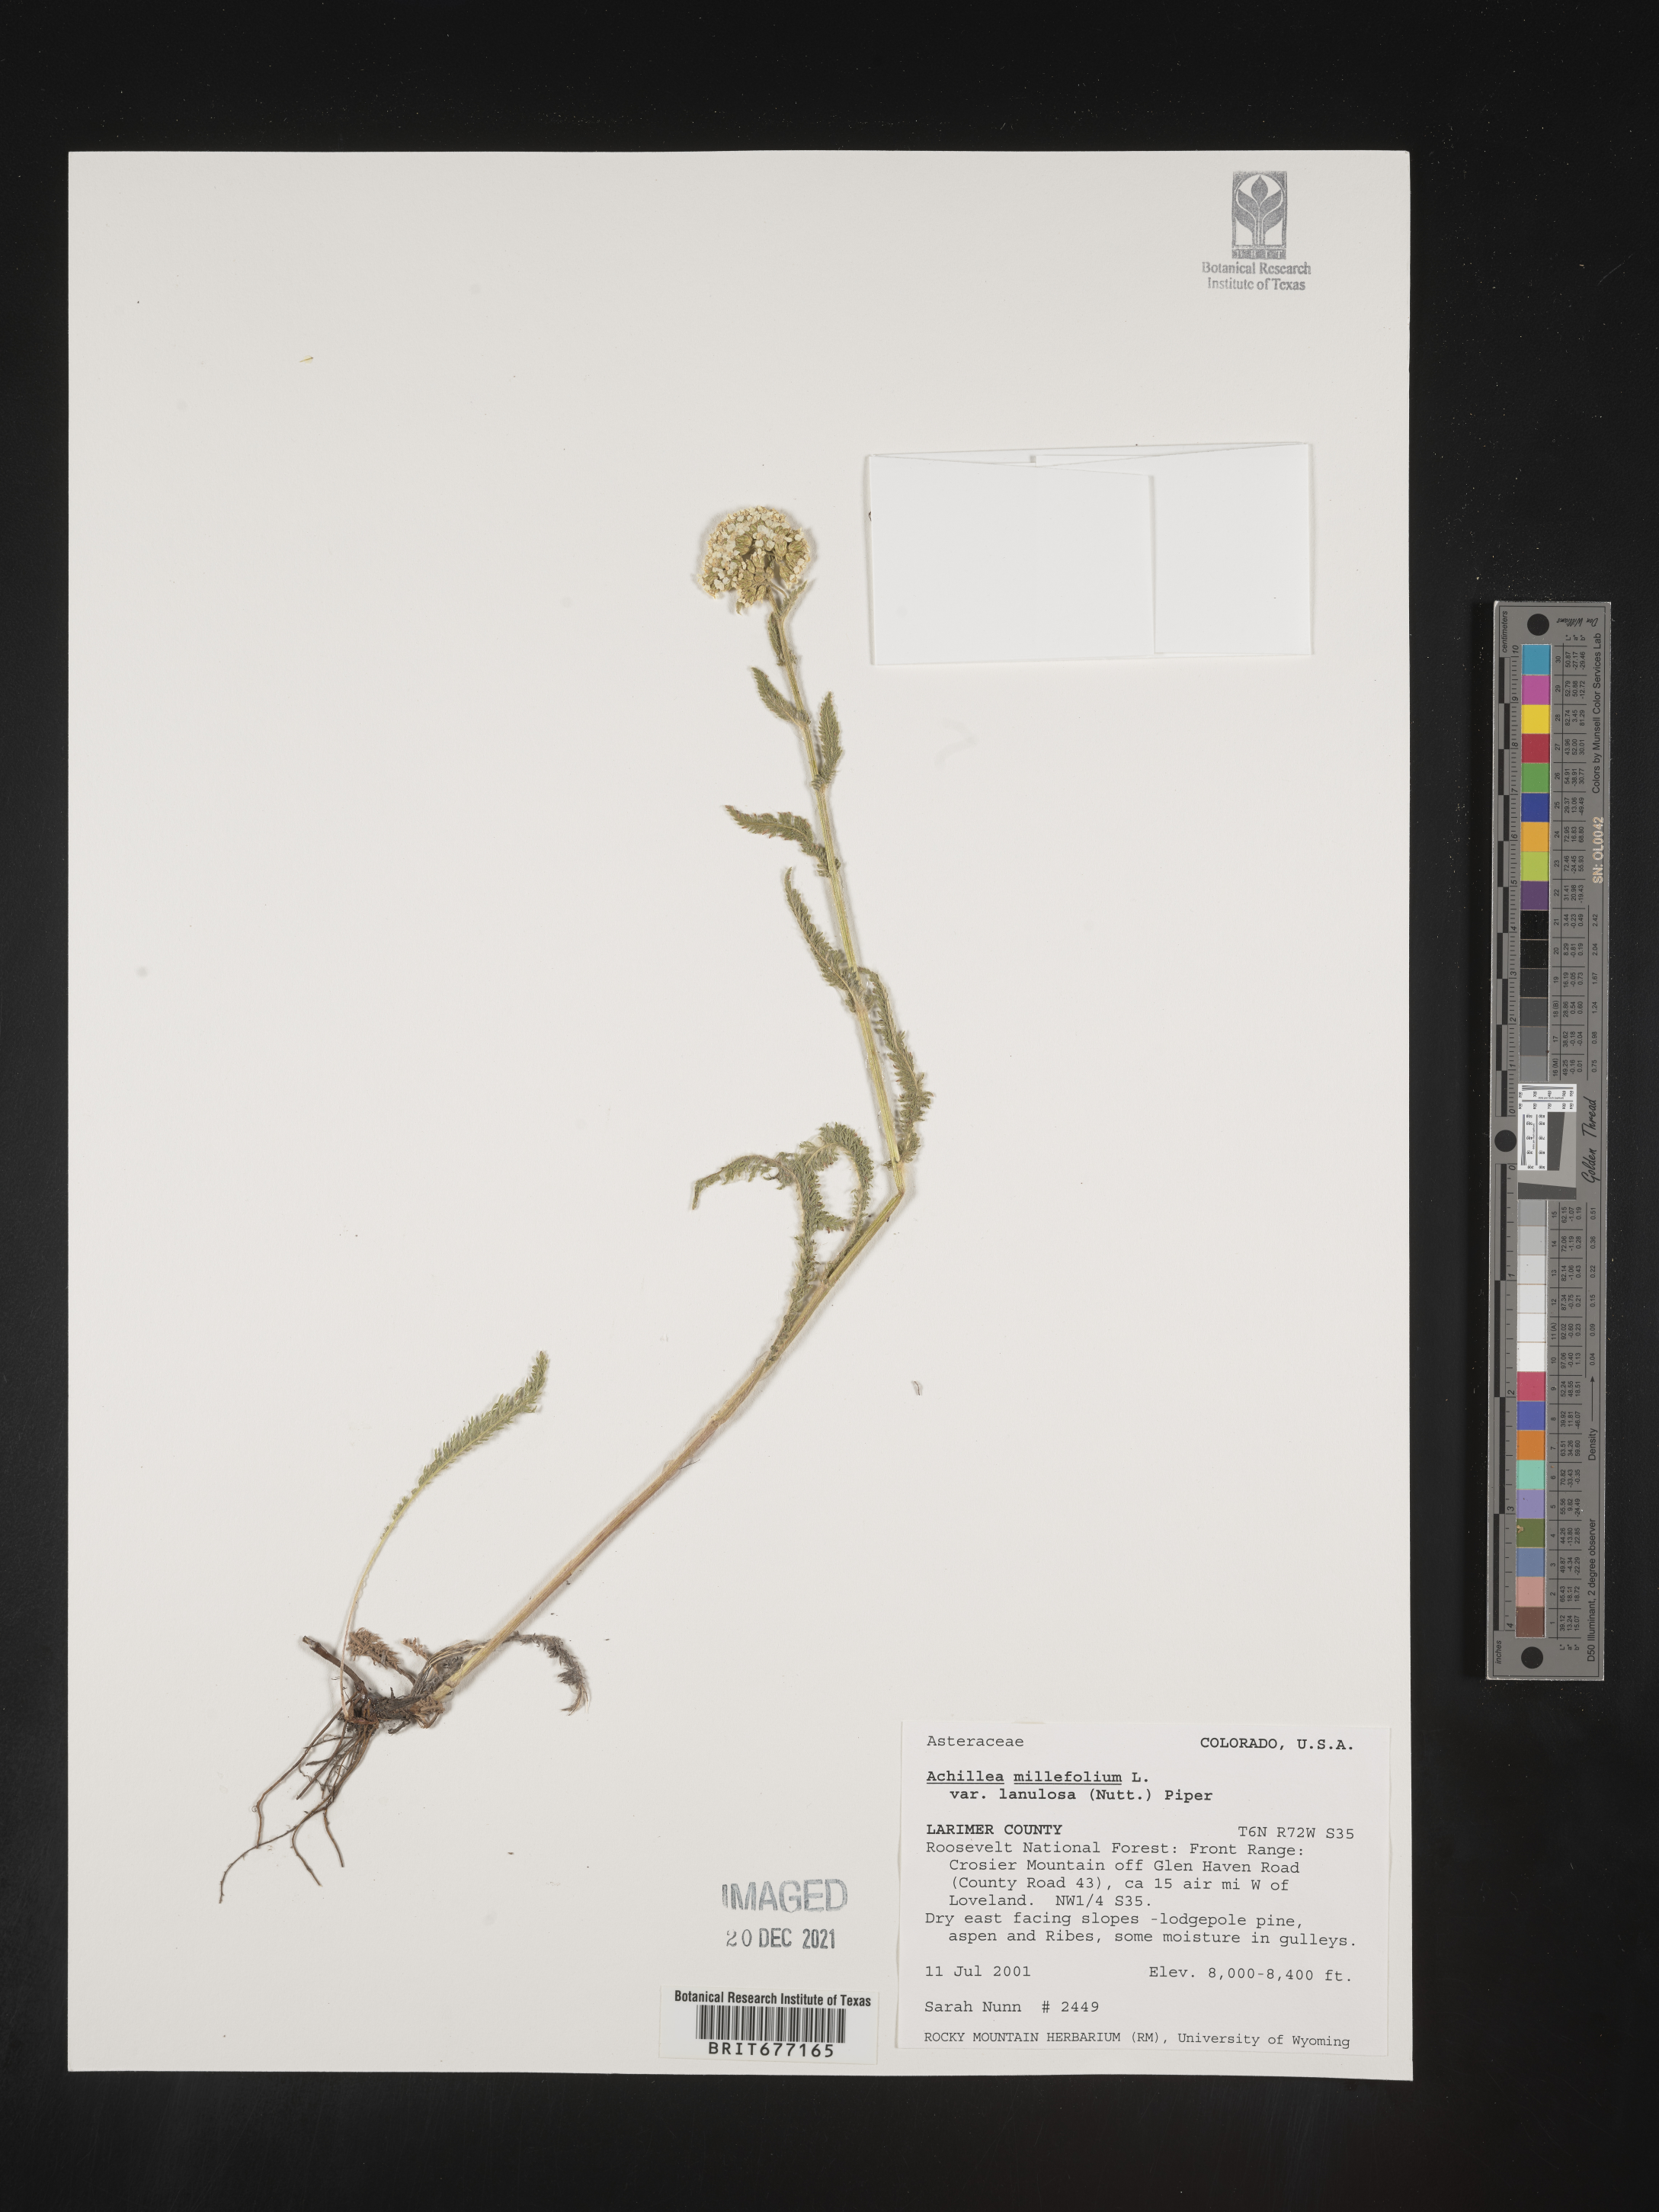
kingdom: Plantae
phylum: Tracheophyta
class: Magnoliopsida
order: Asterales
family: Asteraceae
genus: Achillea
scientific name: Achillea millefolium
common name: Yarrow
